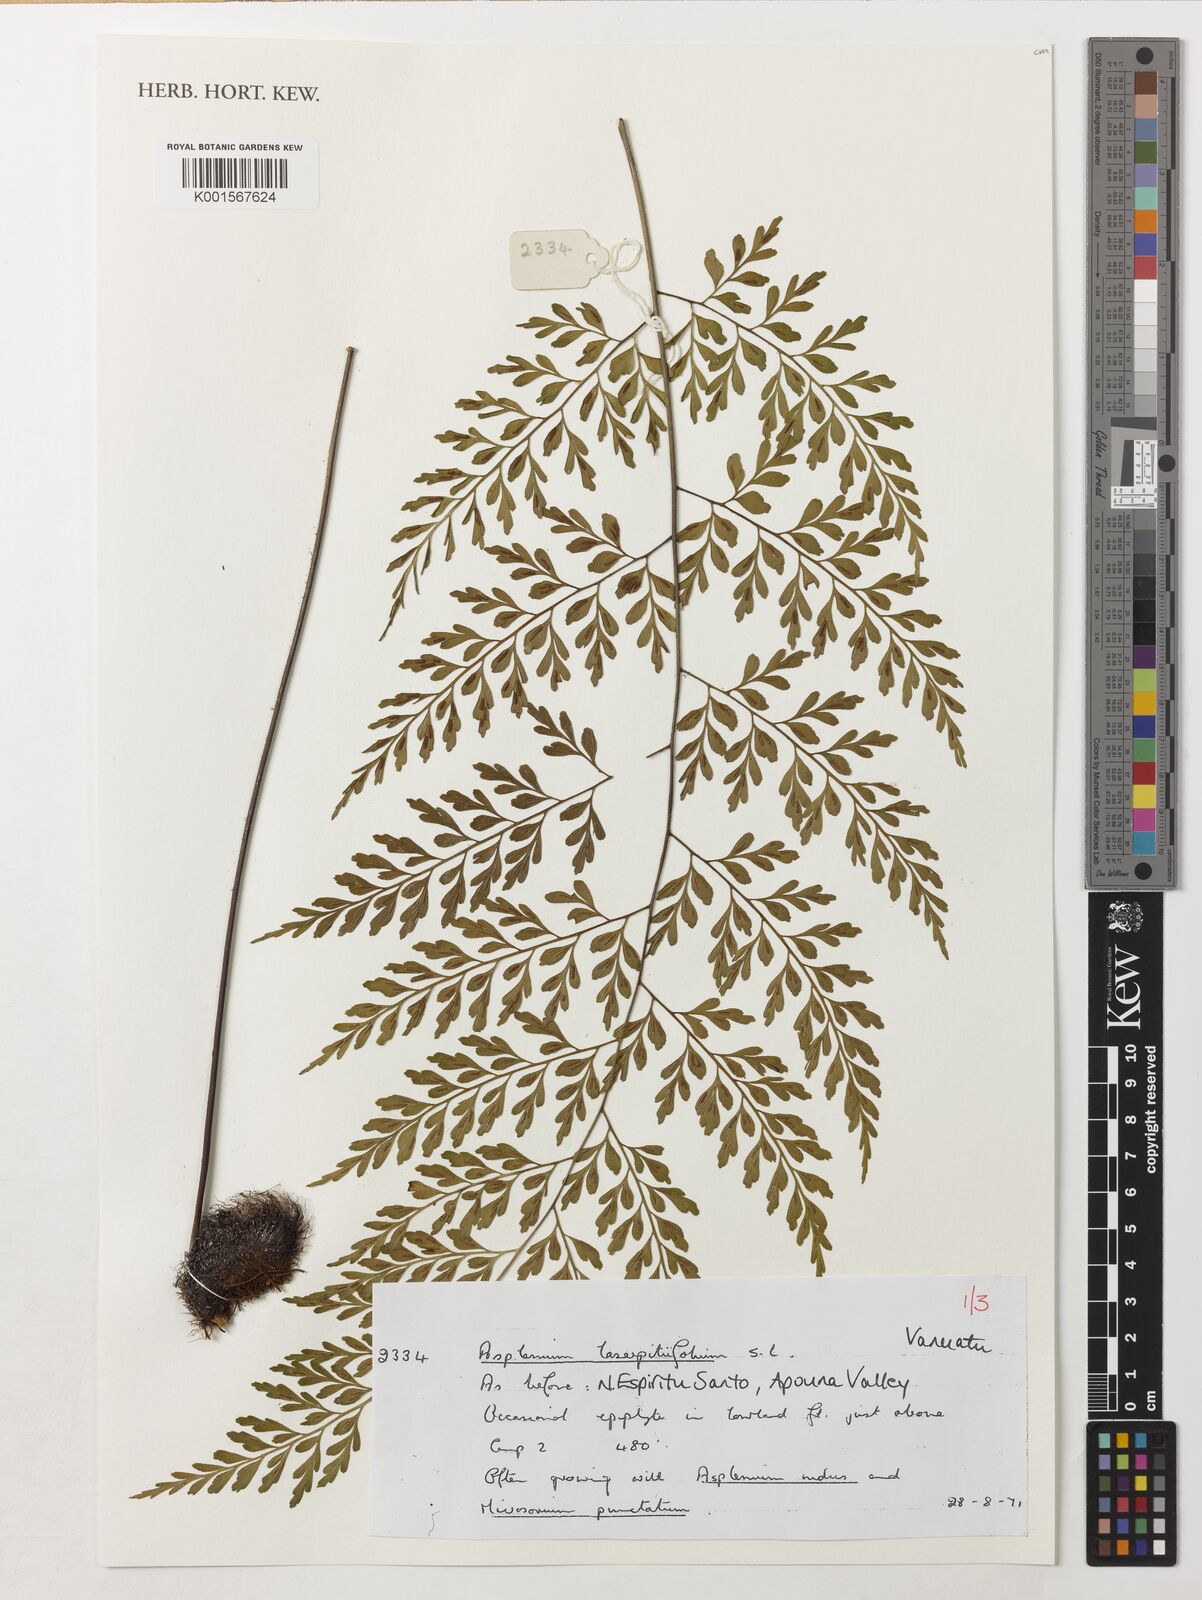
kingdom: Plantae
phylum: Tracheophyta
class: Polypodiopsida
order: Polypodiales
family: Aspleniaceae
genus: Asplenium
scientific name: Asplenium laserpitiifolium
